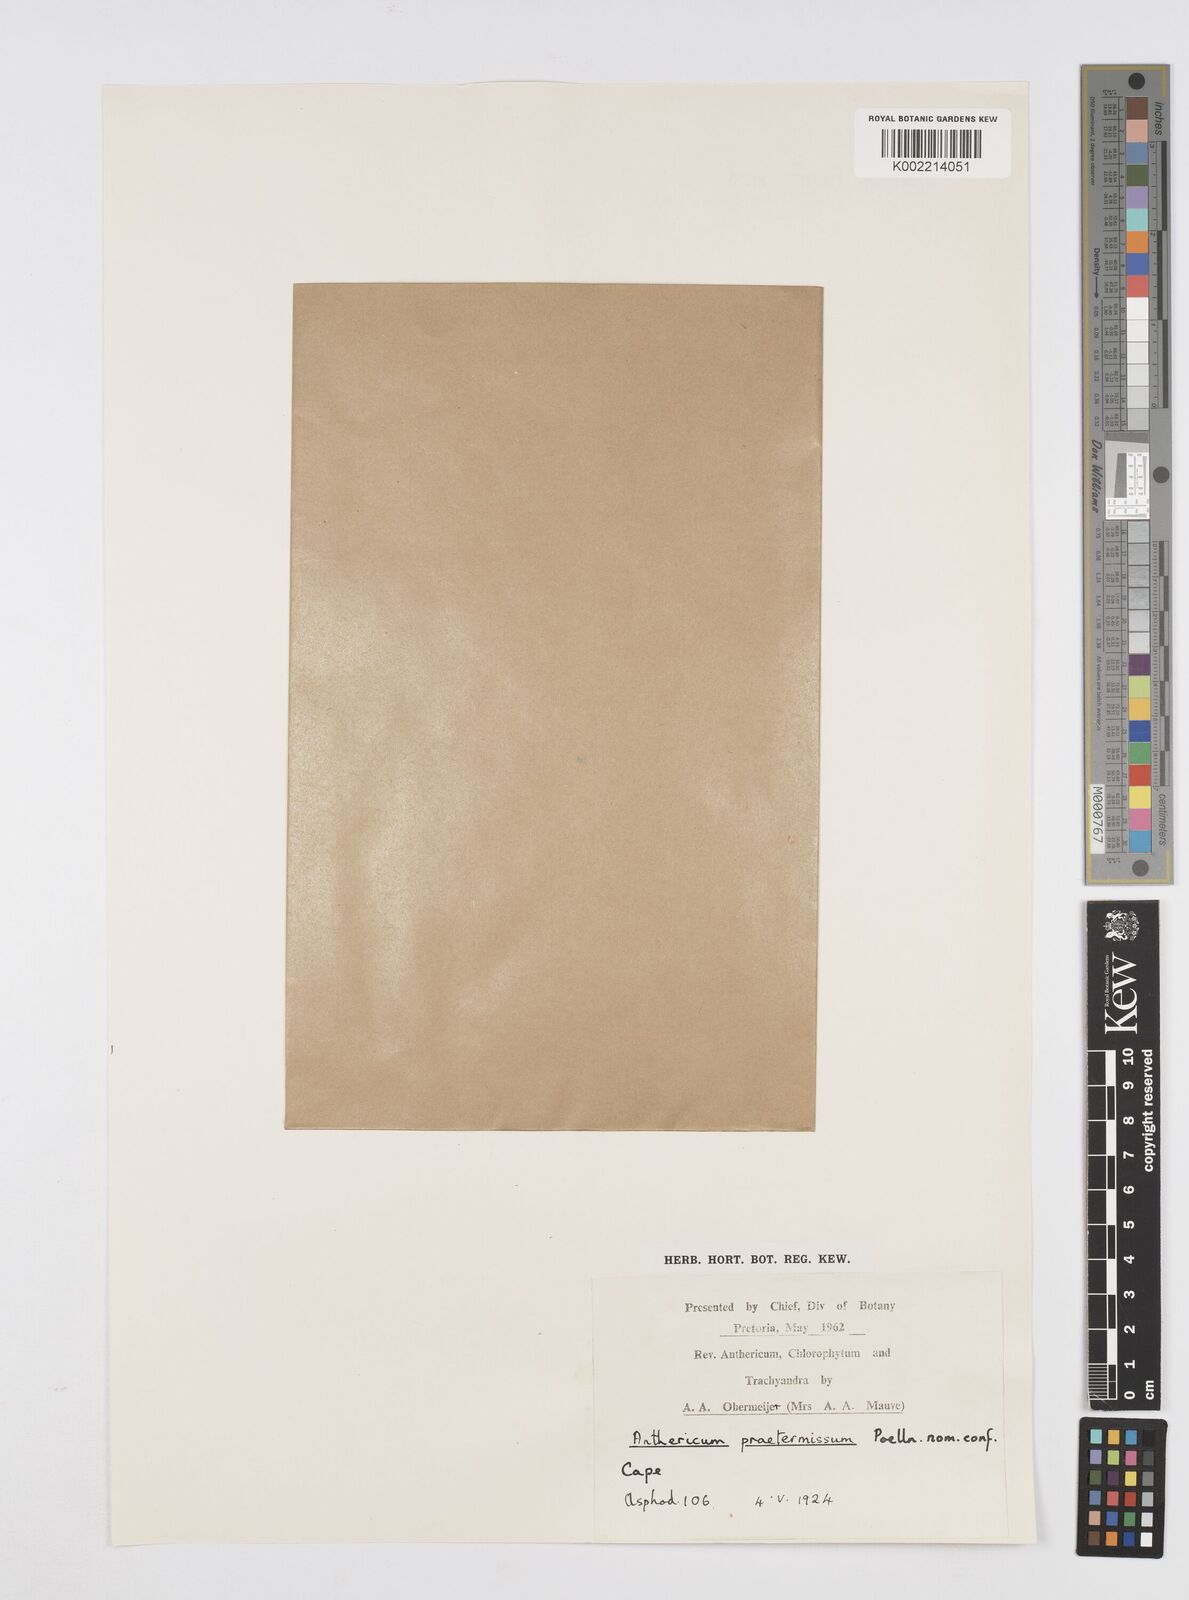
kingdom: Plantae
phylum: Tracheophyta
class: Liliopsida
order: Asparagales
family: Asphodelaceae
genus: Trachyandra
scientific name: Trachyandra
